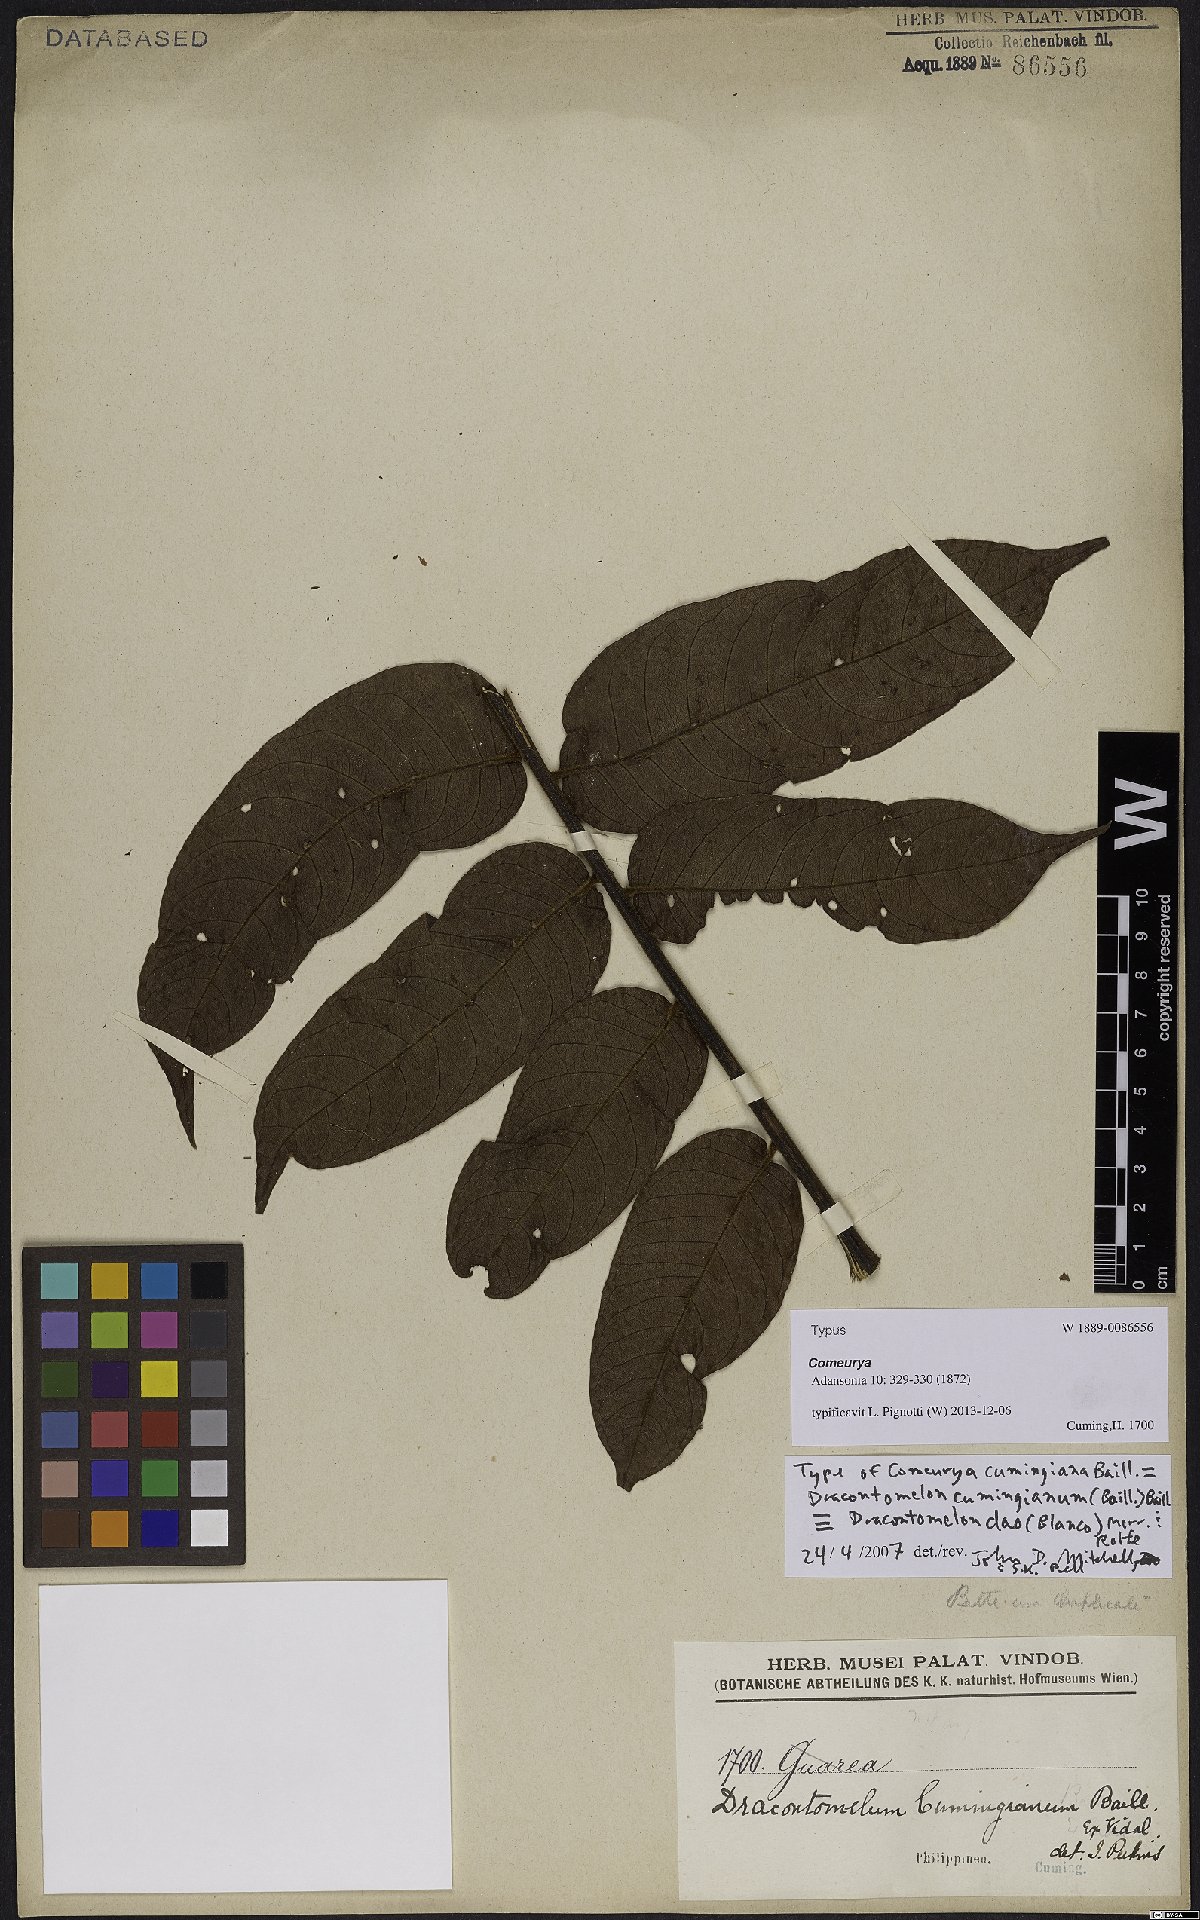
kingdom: Plantae
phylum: Tracheophyta
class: Magnoliopsida
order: Sapindales
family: Anacardiaceae
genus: Dracontomelon
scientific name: Dracontomelon dao
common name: Argus pheasant-tree
